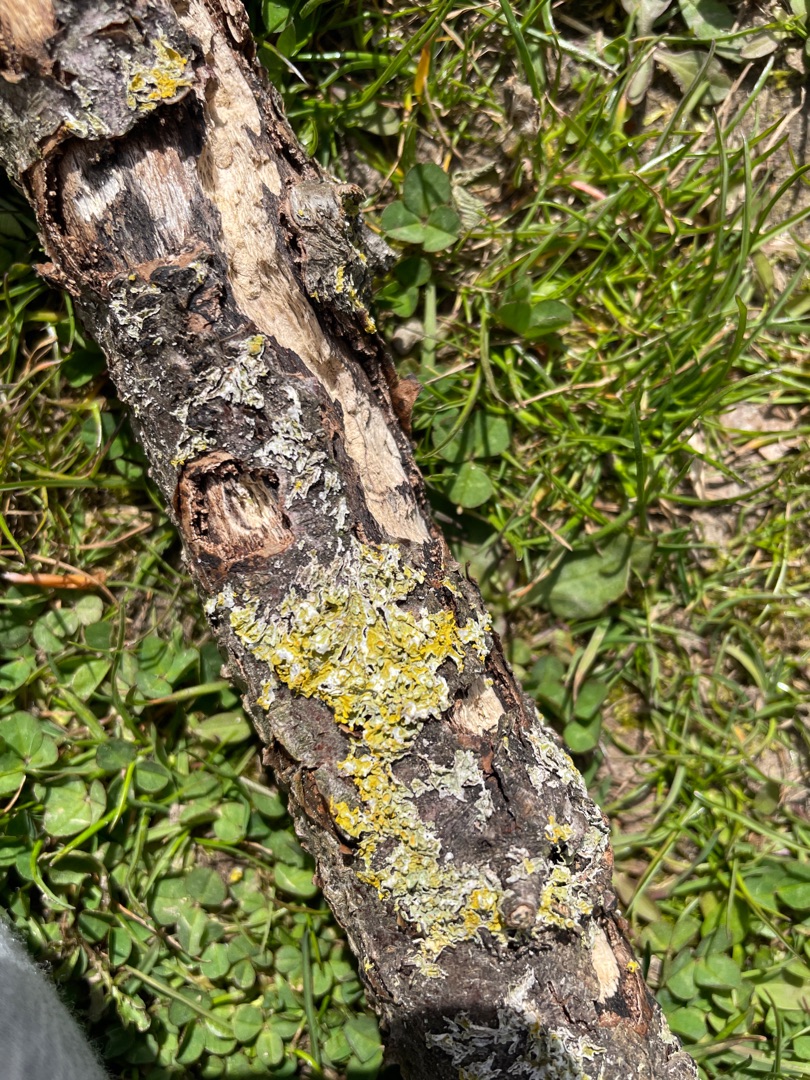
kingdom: Fungi
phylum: Ascomycota
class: Lecanoromycetes
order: Teloschistales
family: Teloschistaceae
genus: Xanthoria
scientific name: Xanthoria parietina
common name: Almindelig væggelav
